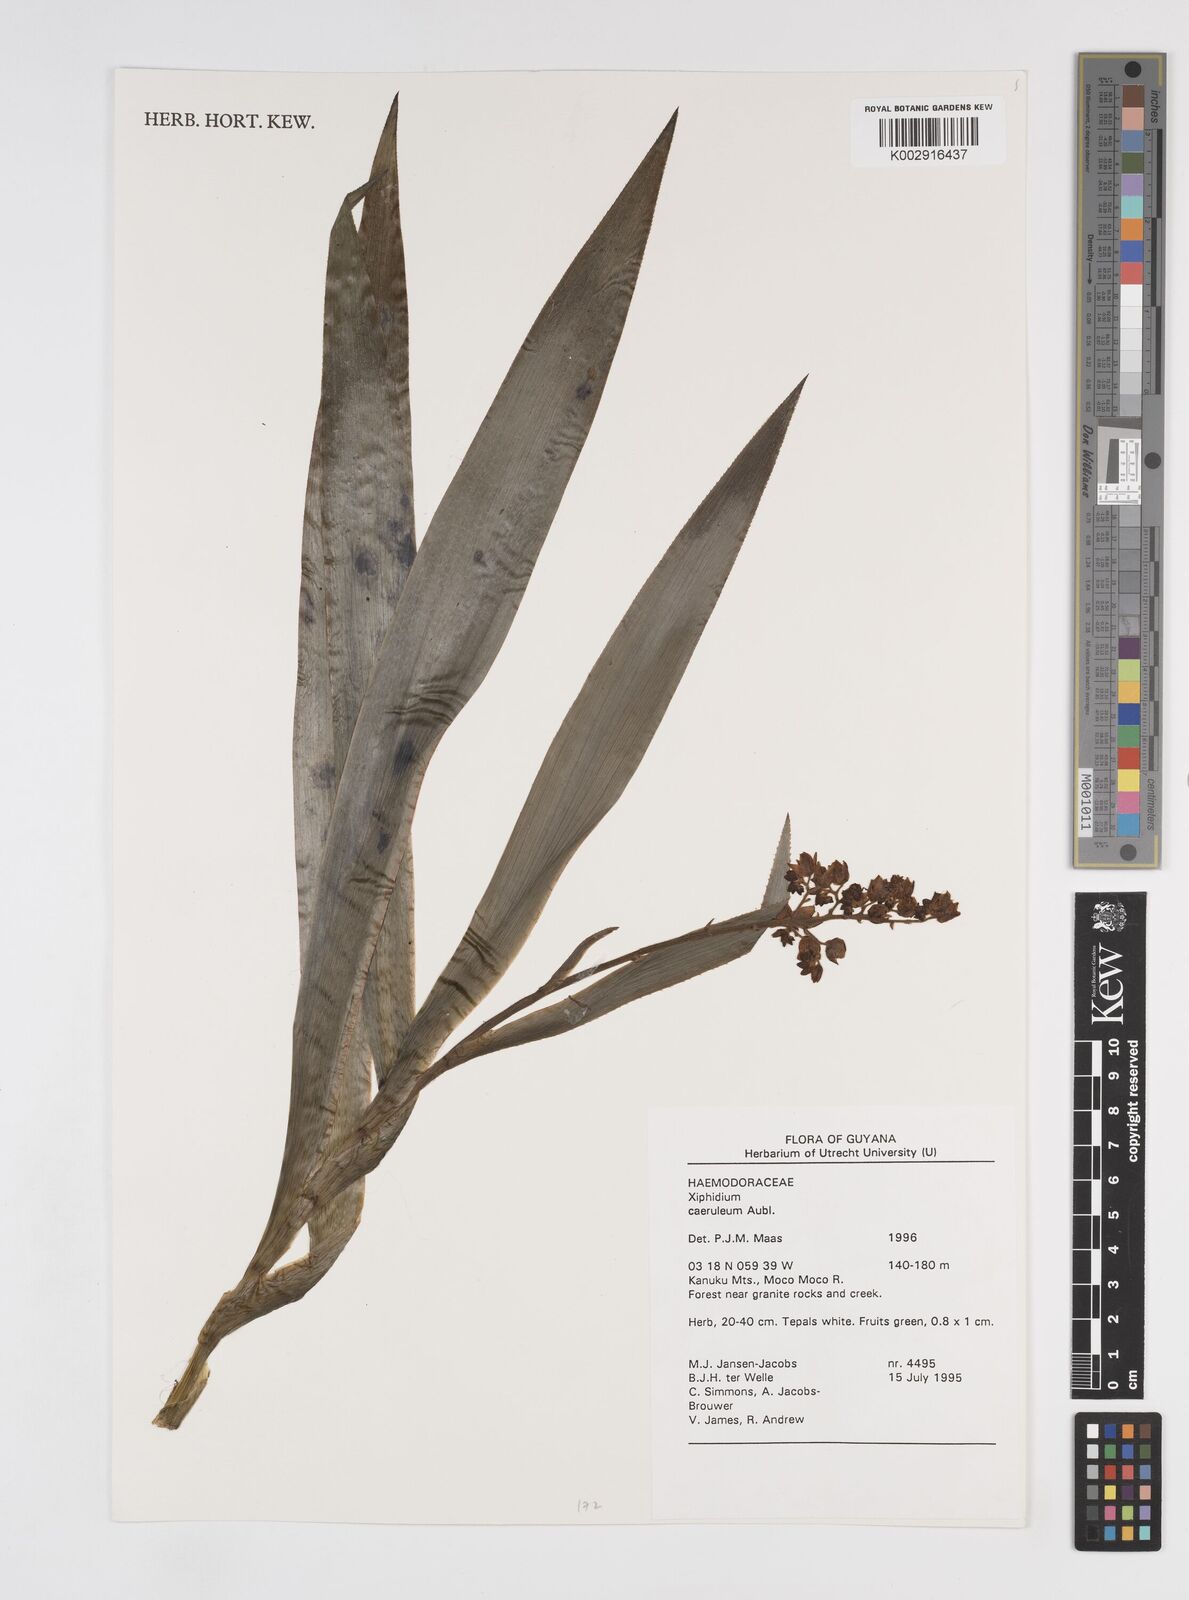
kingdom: Plantae
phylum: Tracheophyta
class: Liliopsida
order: Commelinales
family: Haemodoraceae
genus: Xiphidium
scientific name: Xiphidium caeruleum
